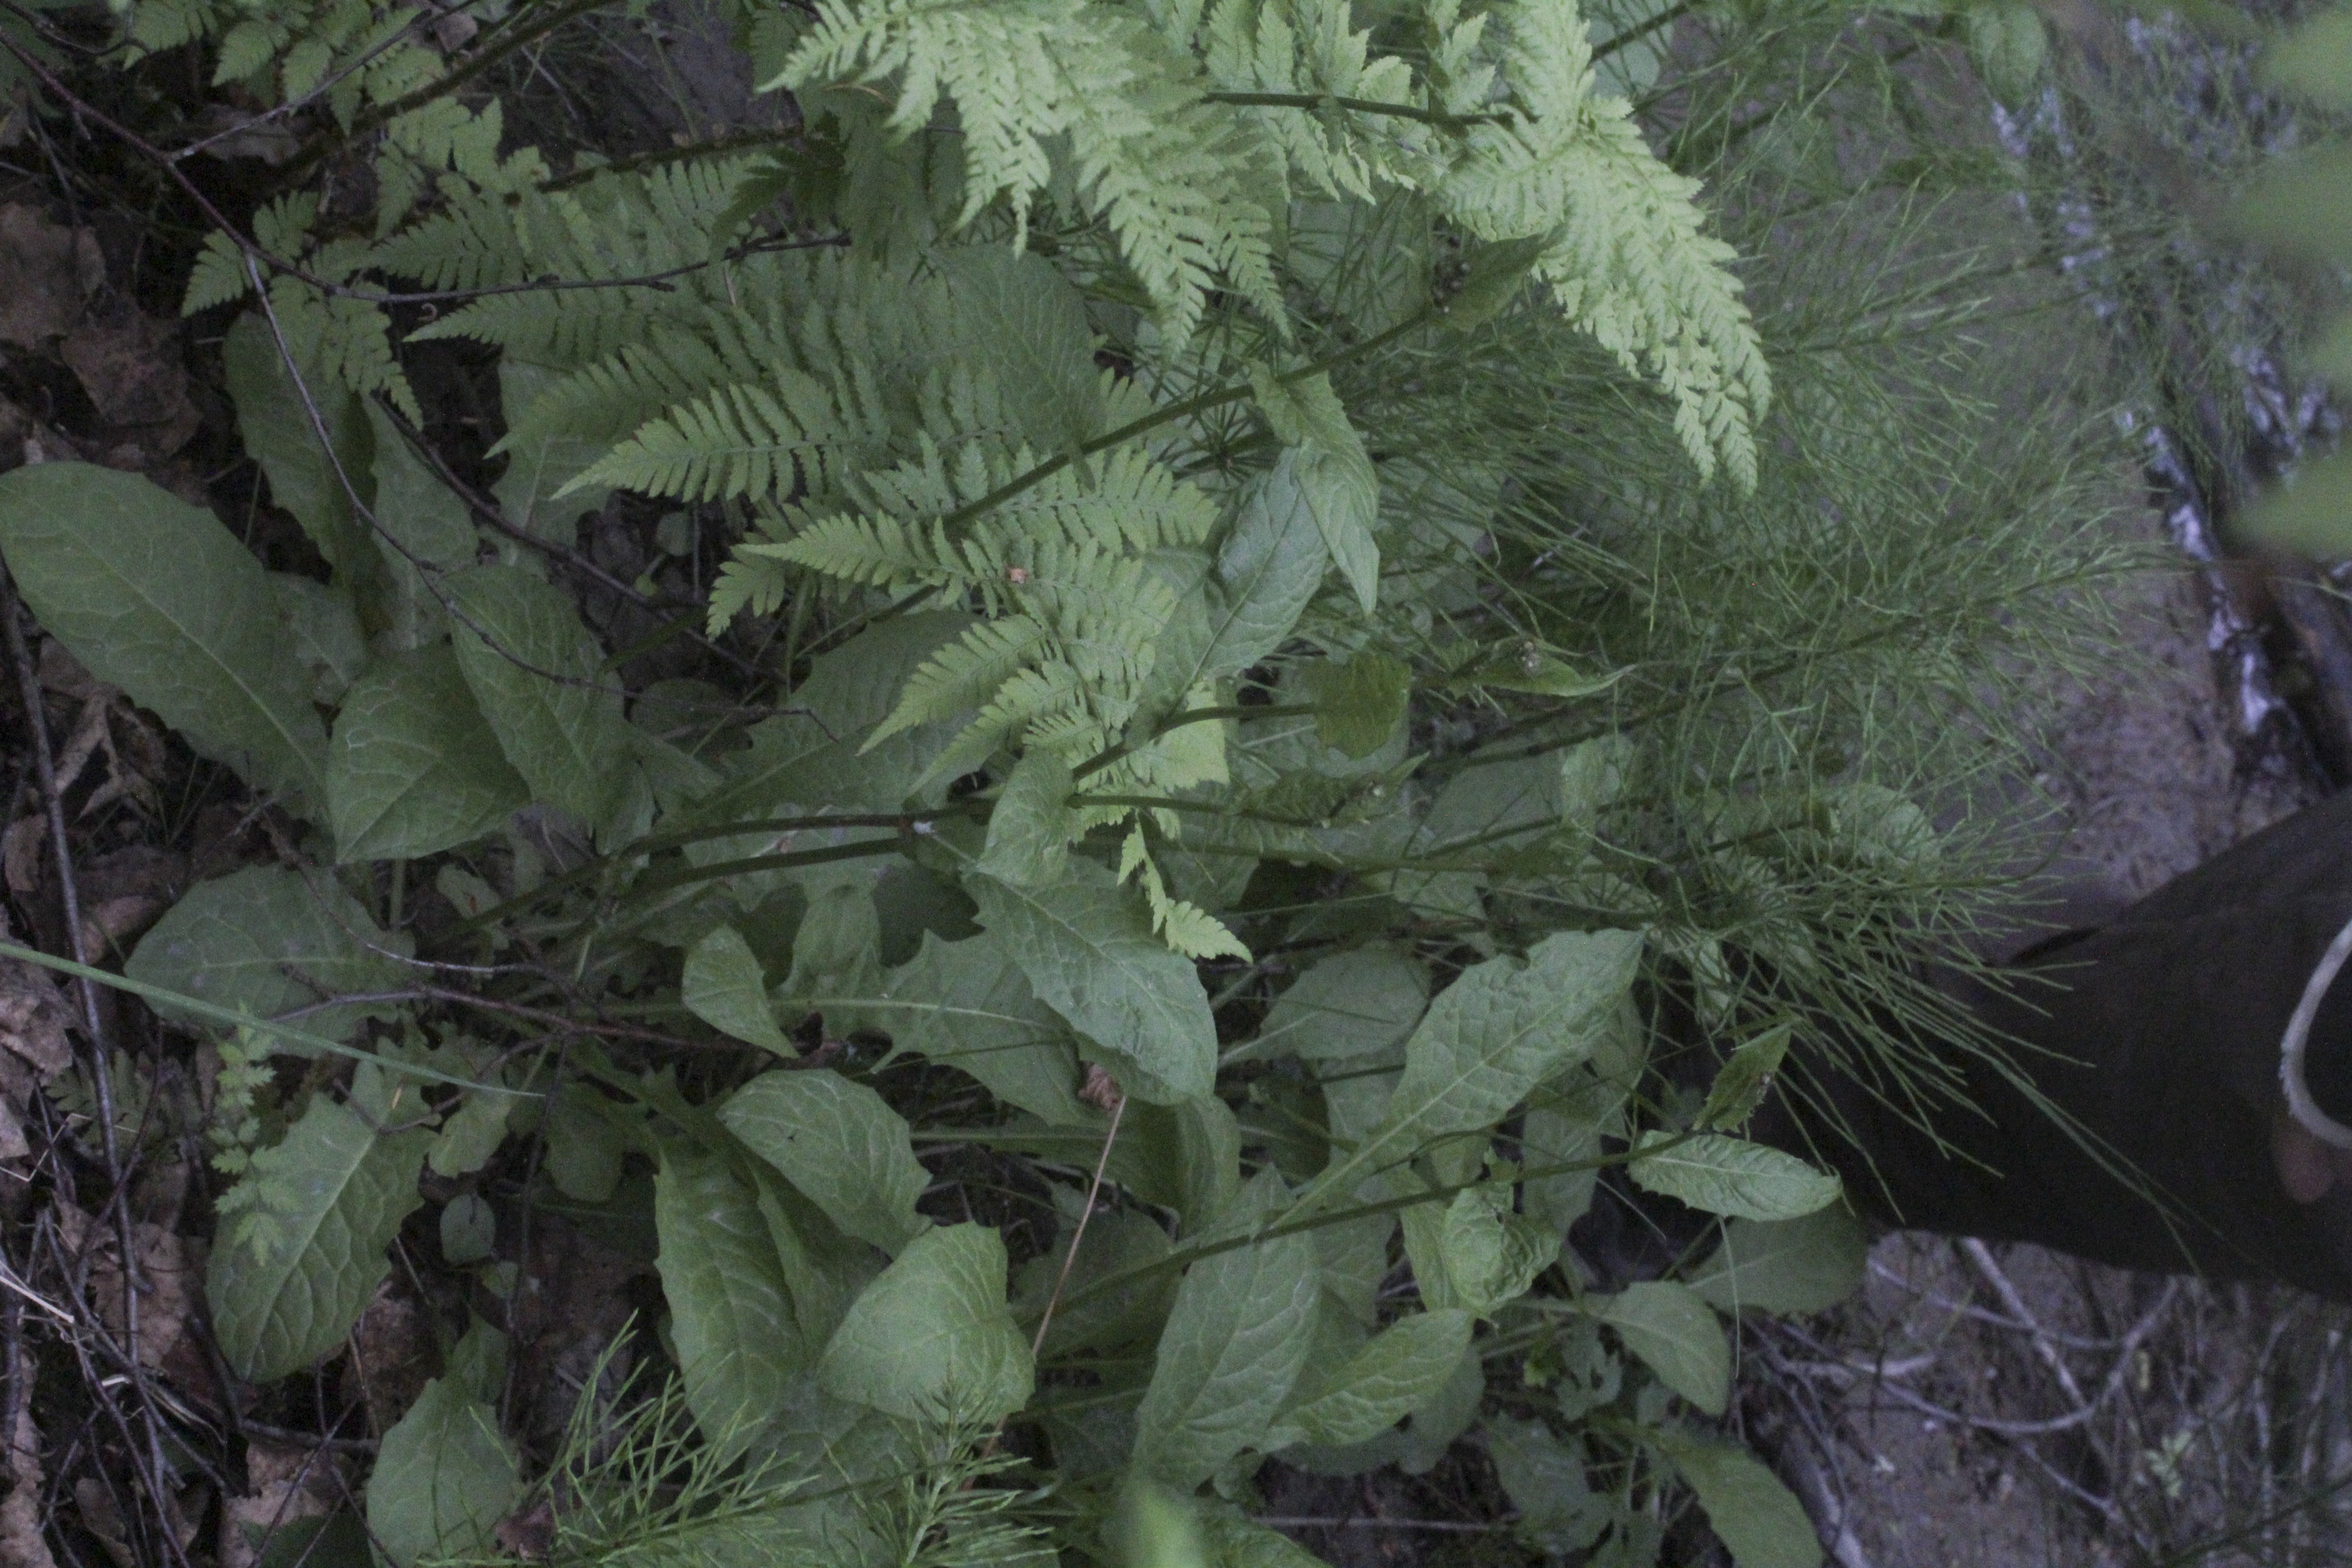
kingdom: Plantae
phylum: Tracheophyta
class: Magnoliopsida
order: Lamiales
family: Scrophulariaceae
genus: Scrophularia
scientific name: Scrophularia nodosa
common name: Common figwort
